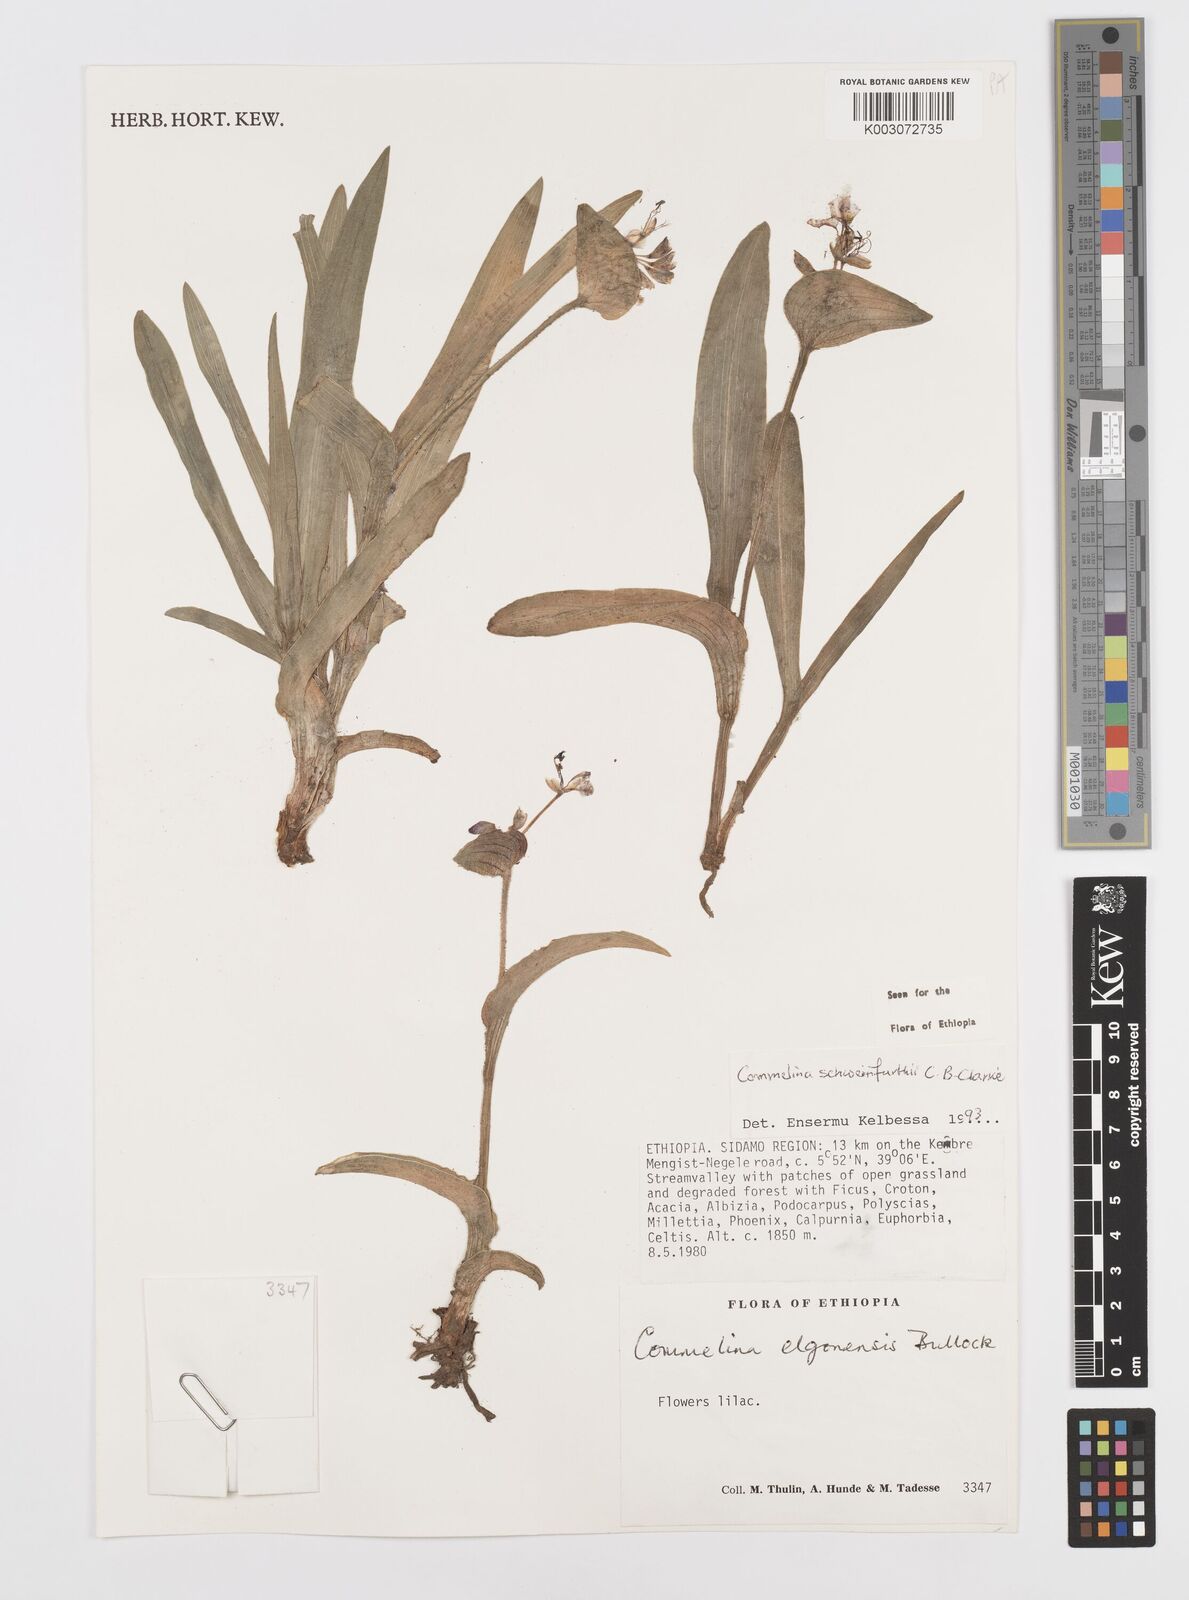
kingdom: Plantae
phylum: Tracheophyta
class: Liliopsida
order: Commelinales
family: Commelinaceae
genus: Commelina
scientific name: Commelina schweinfurthii
